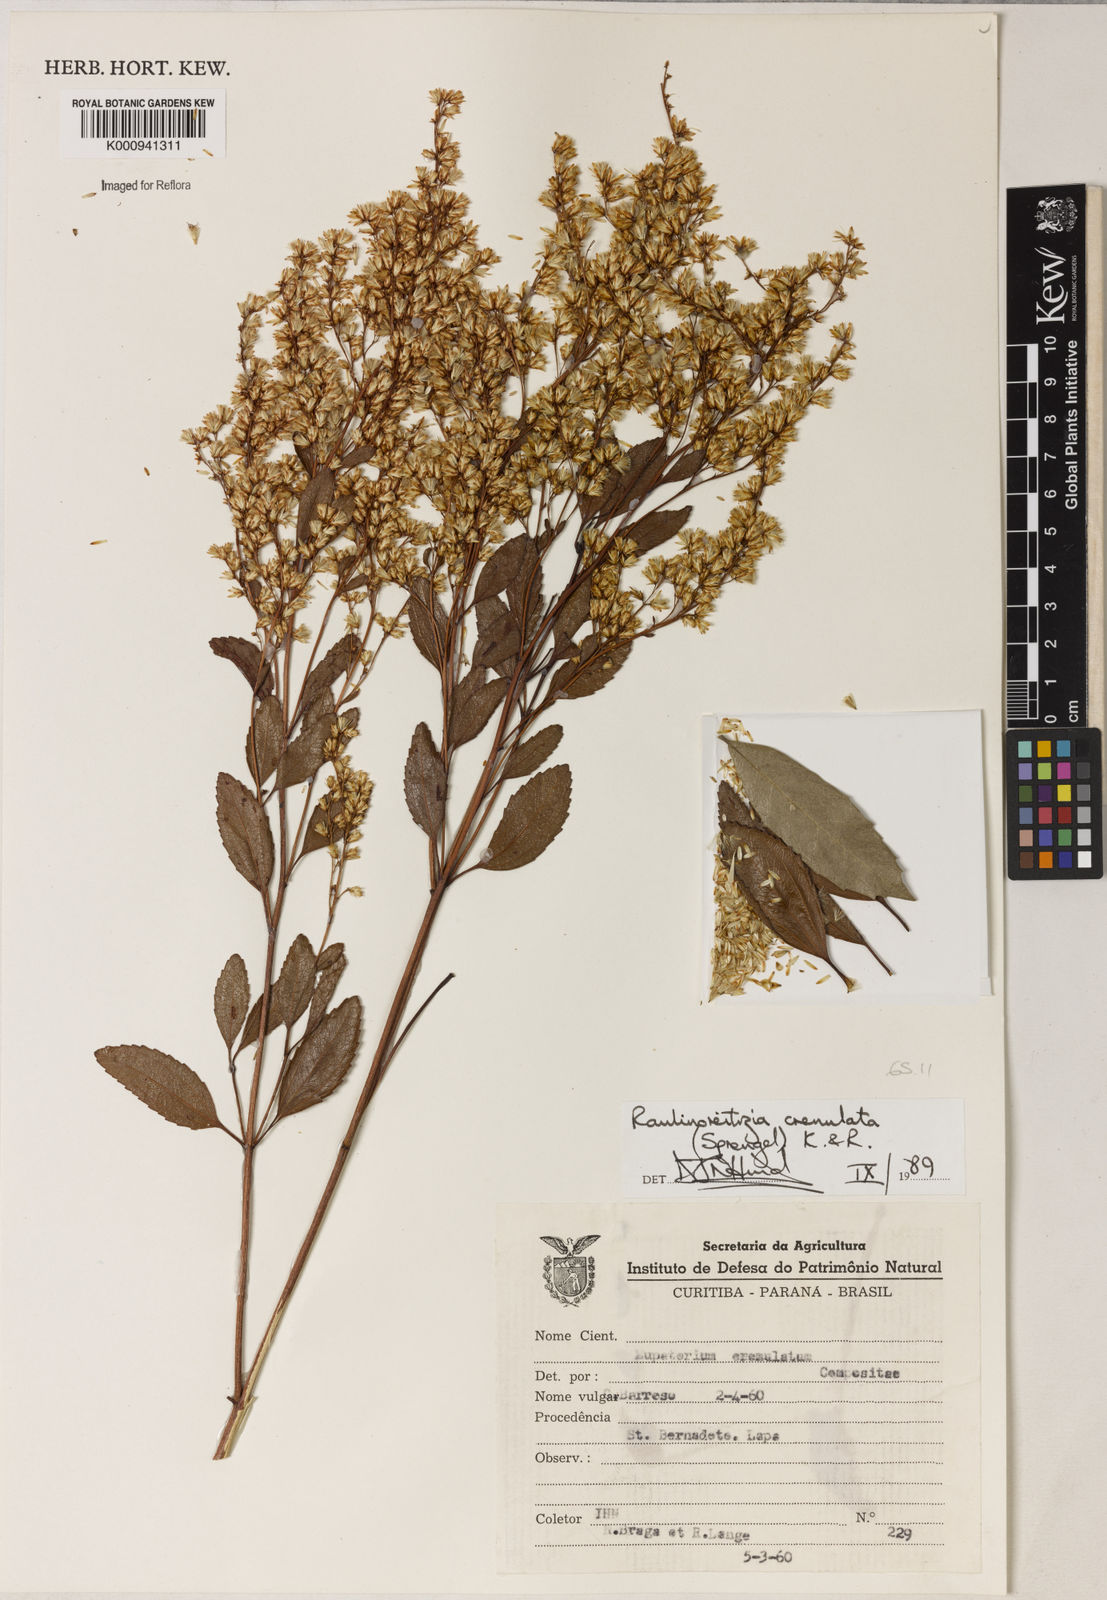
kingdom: Plantae
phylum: Tracheophyta
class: Magnoliopsida
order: Asterales
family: Asteraceae
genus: Raulinoreitzia
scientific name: Raulinoreitzia crenulata
